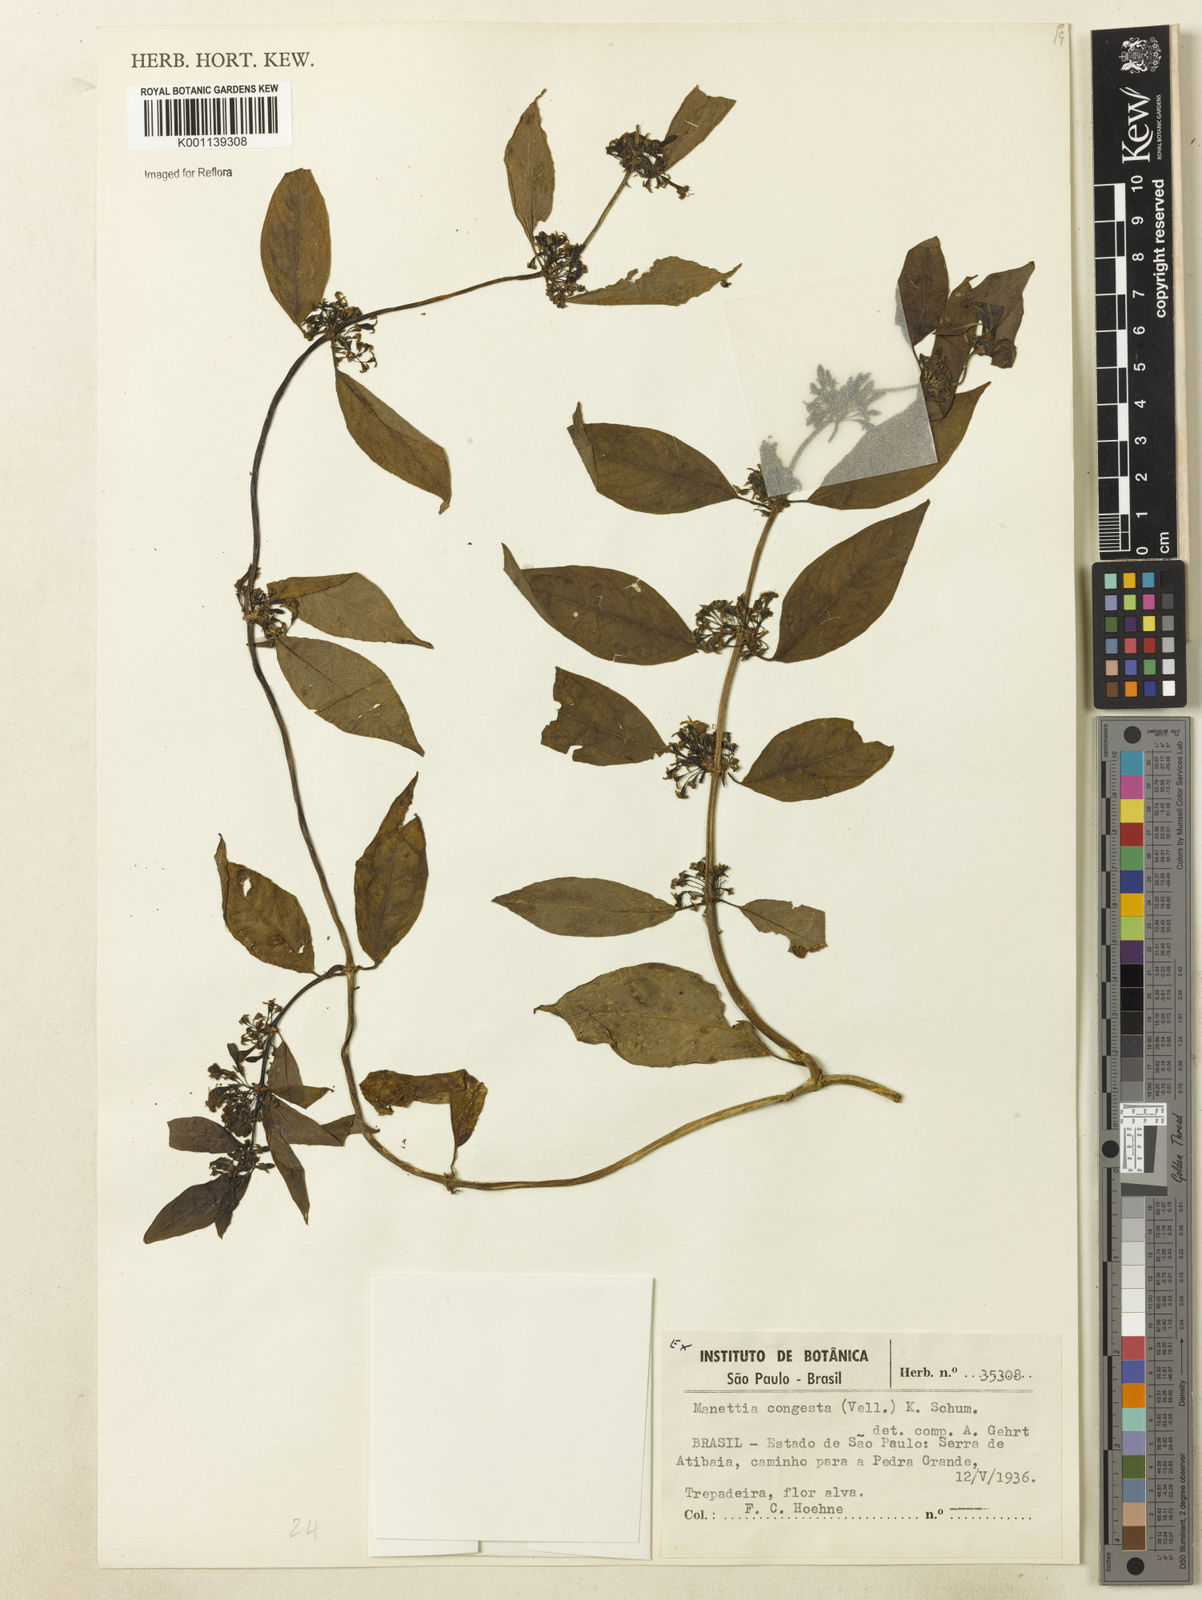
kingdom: Plantae
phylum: Tracheophyta
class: Magnoliopsida
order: Gentianales
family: Rubiaceae
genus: Manettia
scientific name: Manettia congesta
